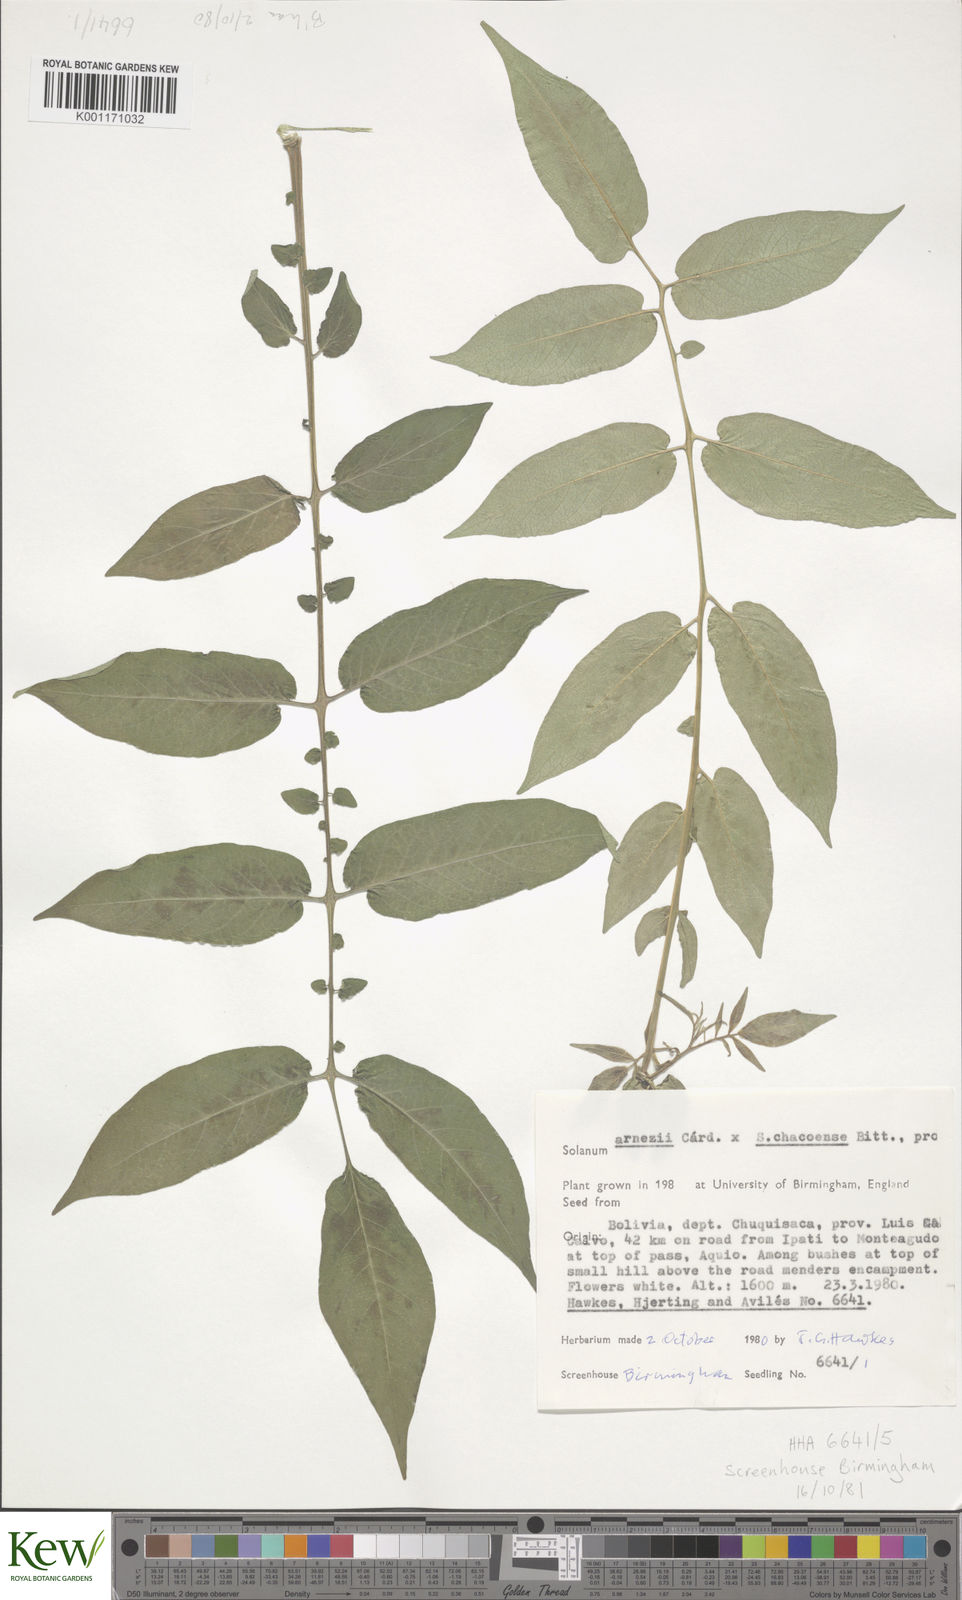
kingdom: Plantae
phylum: Tracheophyta
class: Magnoliopsida
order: Solanales
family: Solanaceae
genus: Solanum
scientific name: Solanum
